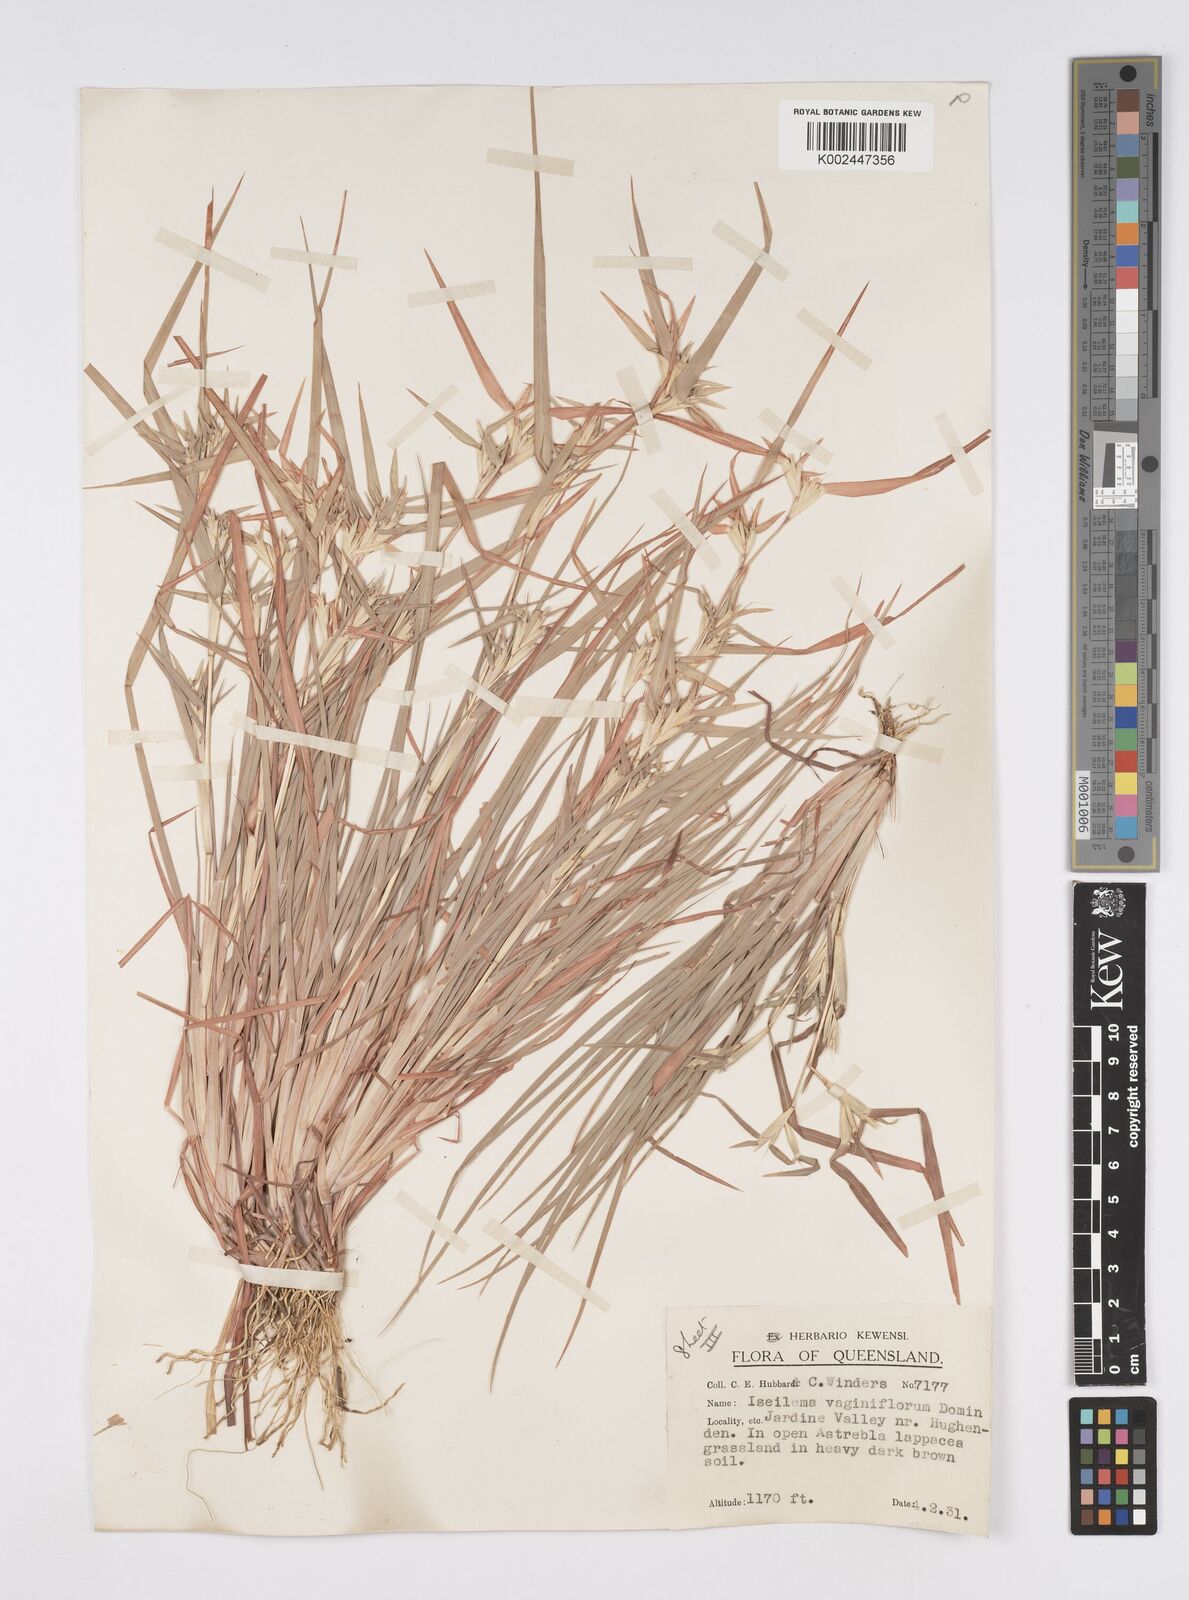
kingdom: Plantae
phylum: Tracheophyta
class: Liliopsida
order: Poales
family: Poaceae
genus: Iseilema
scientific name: Iseilema vaginiflorum
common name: Red flinders grass
